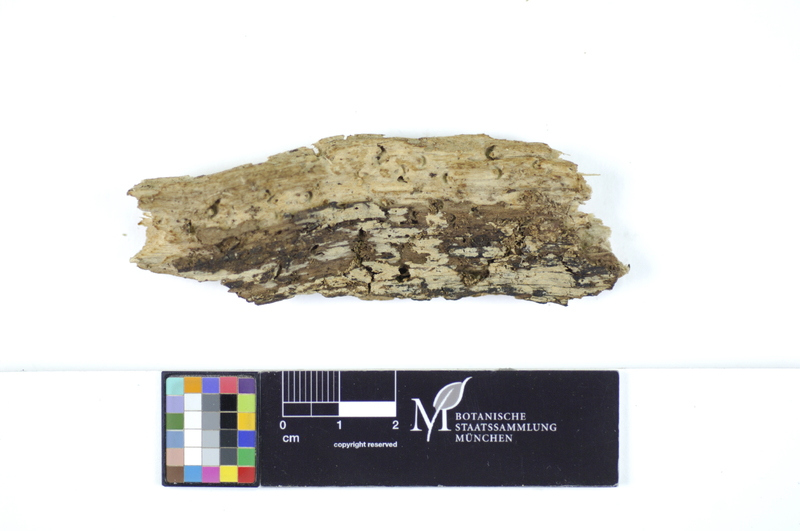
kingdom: Fungi
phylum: Basidiomycota
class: Agaricomycetes
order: Hymenochaetales
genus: Kurtia
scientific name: Kurtia argillacea
